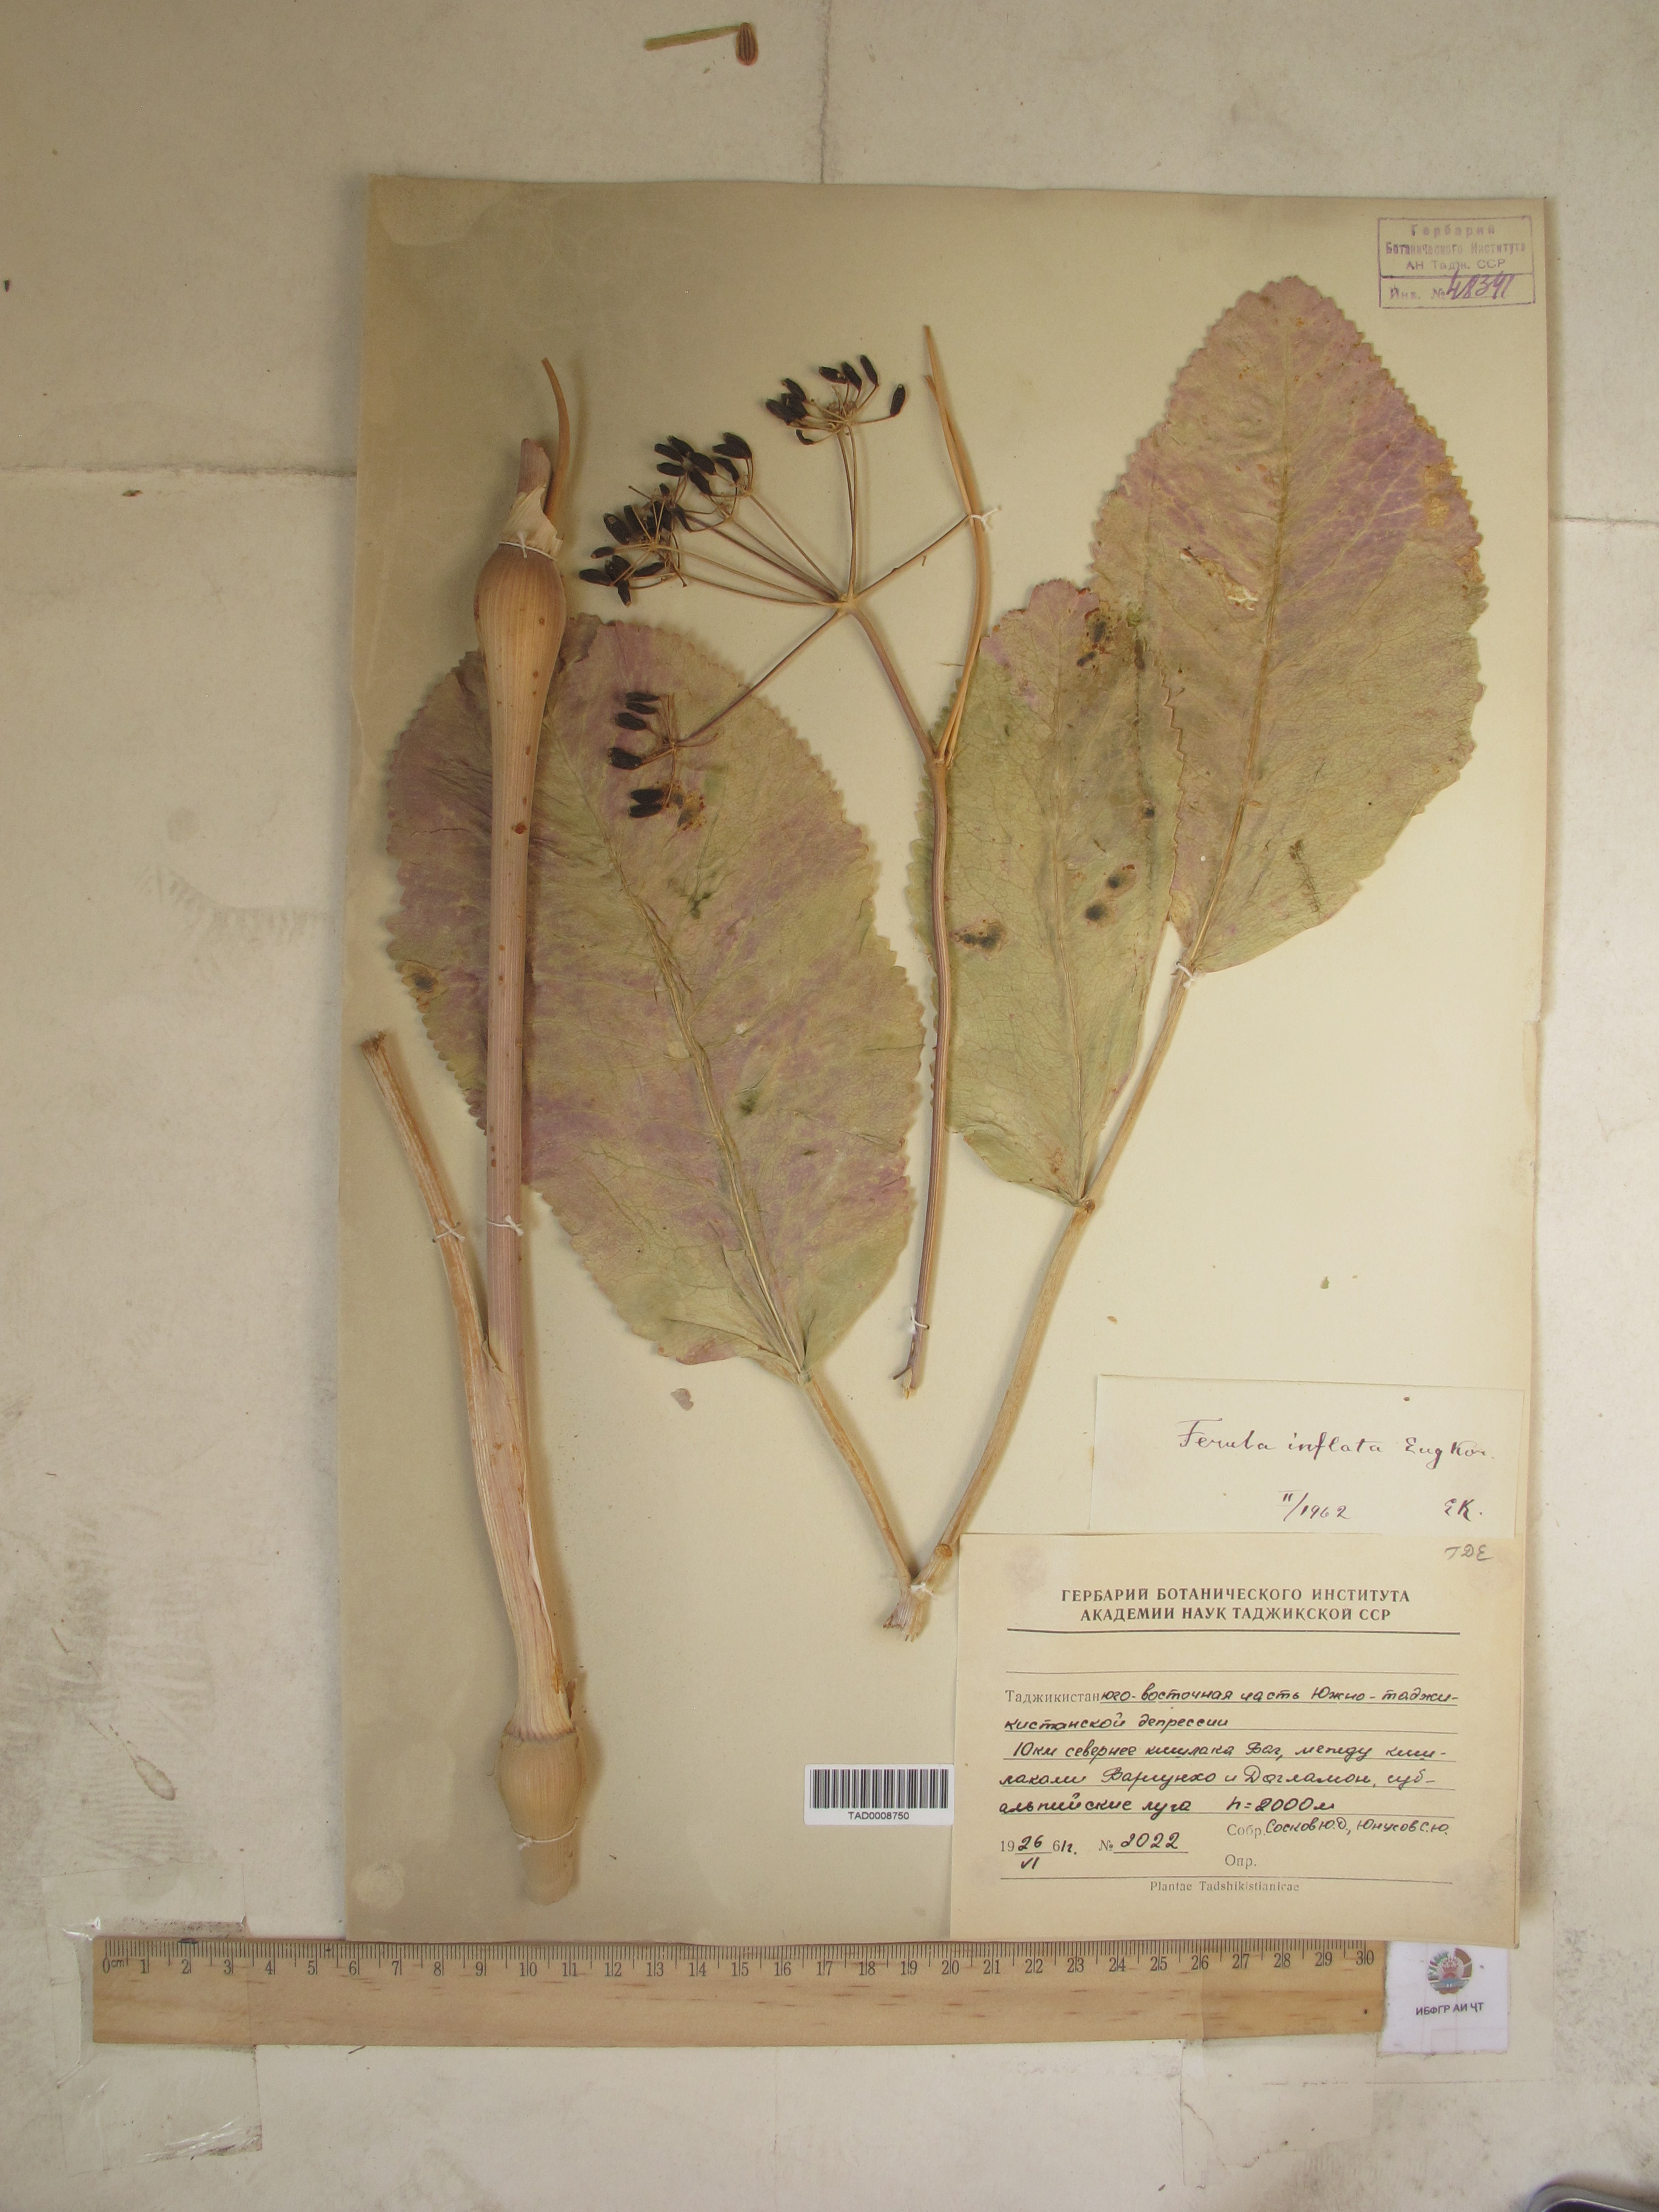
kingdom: Plantae
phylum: Tracheophyta
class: Magnoliopsida
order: Apiales
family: Apiaceae
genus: Ferula
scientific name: Ferula gigantea
